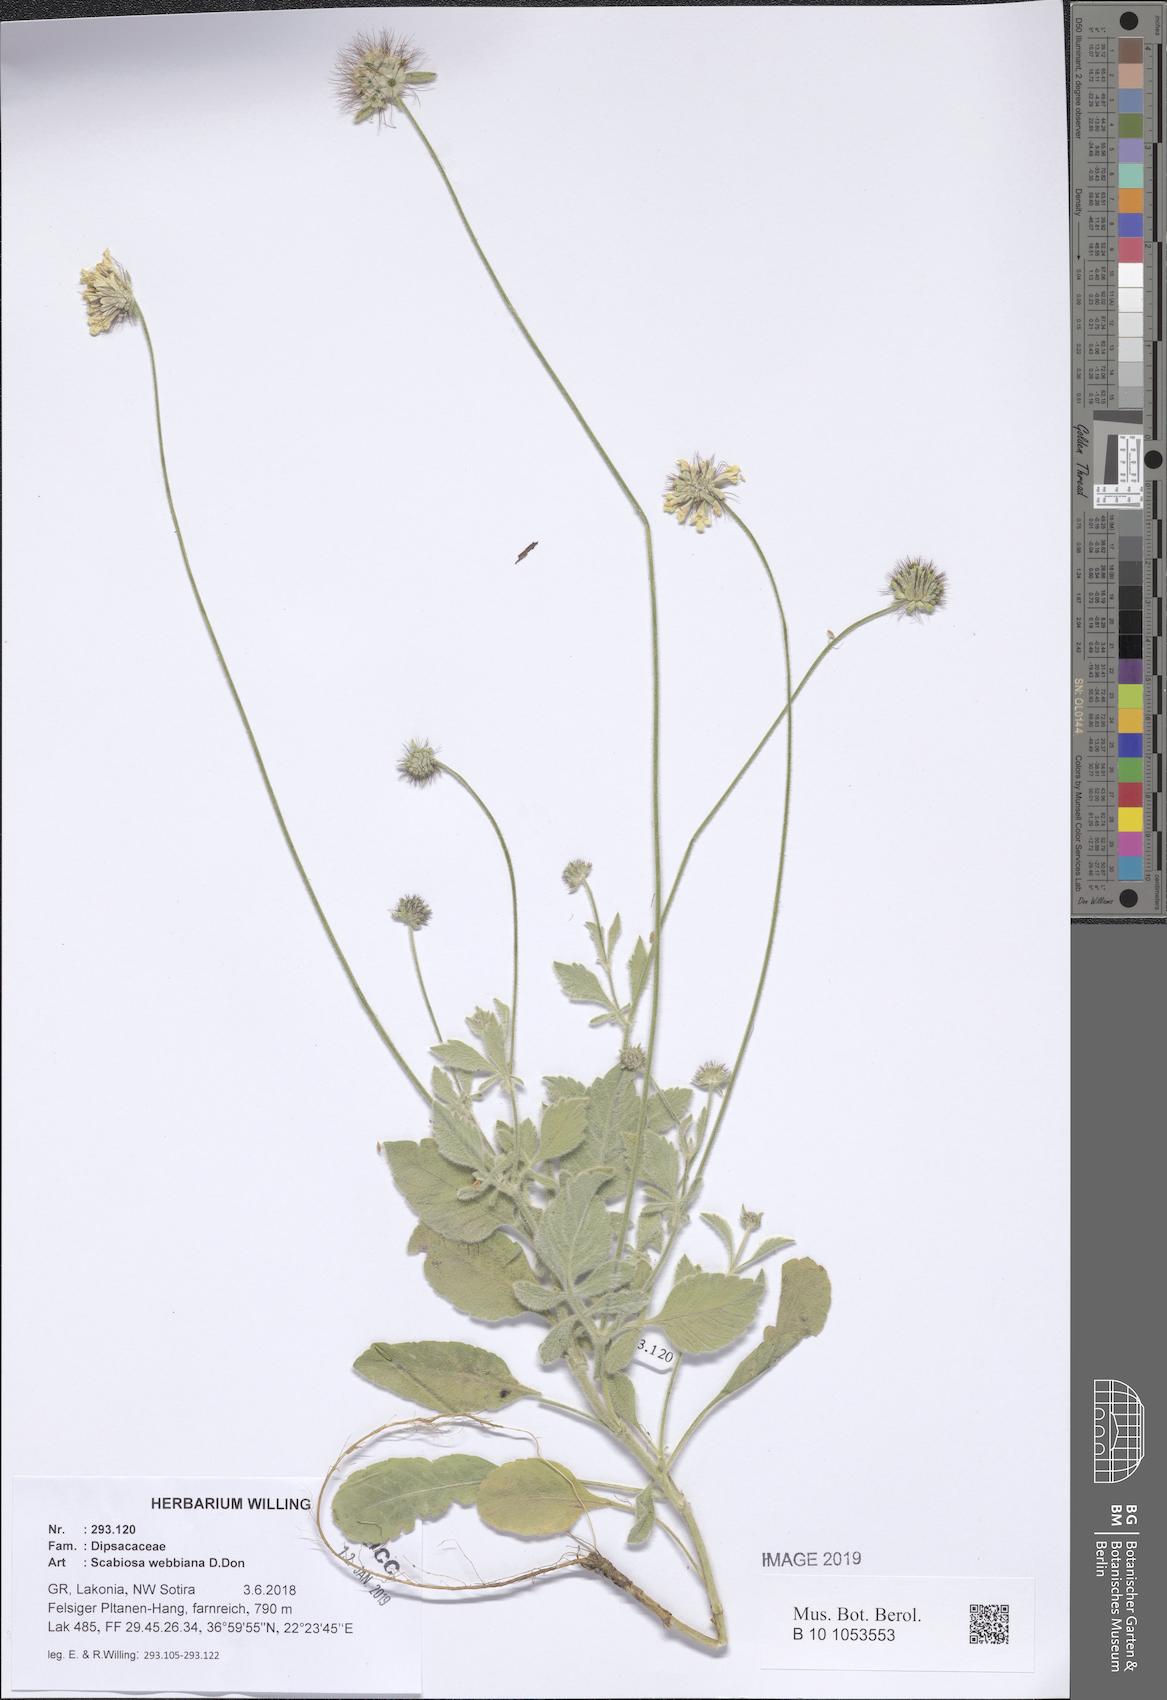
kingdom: Plantae
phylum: Tracheophyta
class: Magnoliopsida
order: Dipsacales
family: Caprifoliaceae
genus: Scabiosa
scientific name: Scabiosa webbiana
